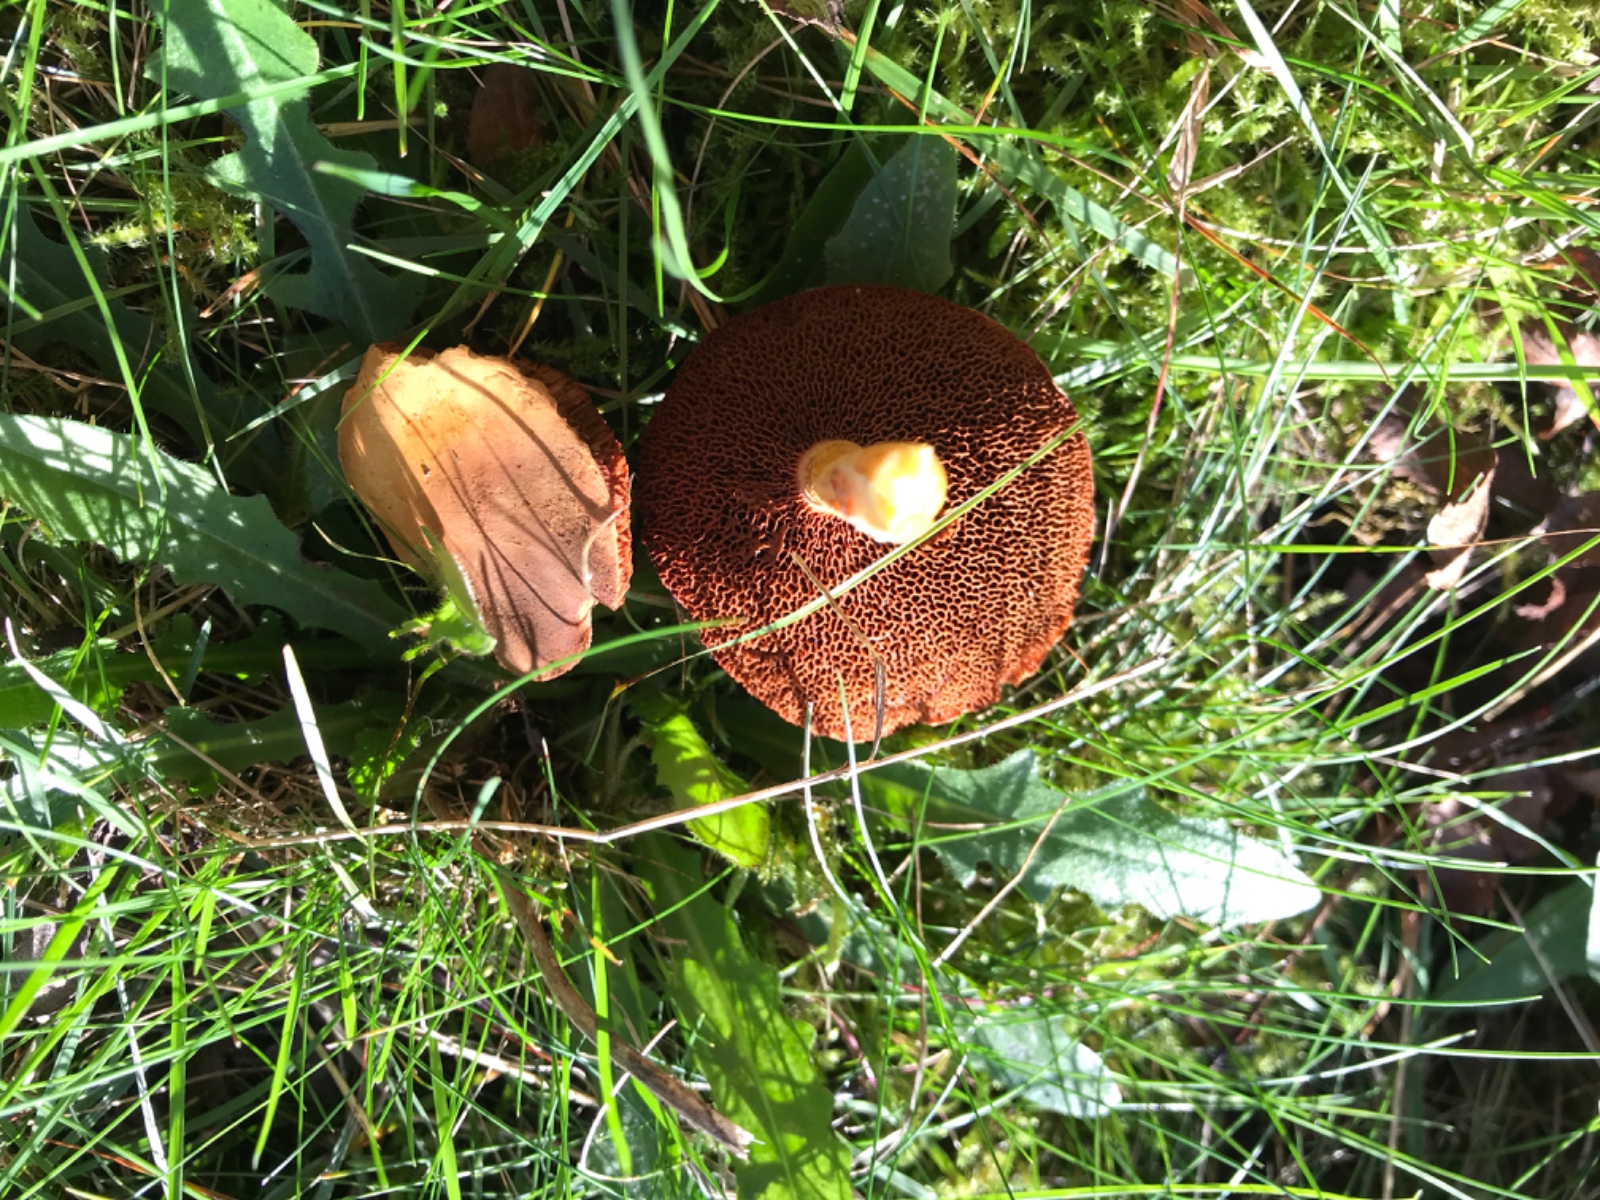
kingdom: Fungi
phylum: Basidiomycota
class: Agaricomycetes
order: Boletales
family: Boletaceae
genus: Chalciporus
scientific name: Chalciporus piperatus
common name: peberrørhat
